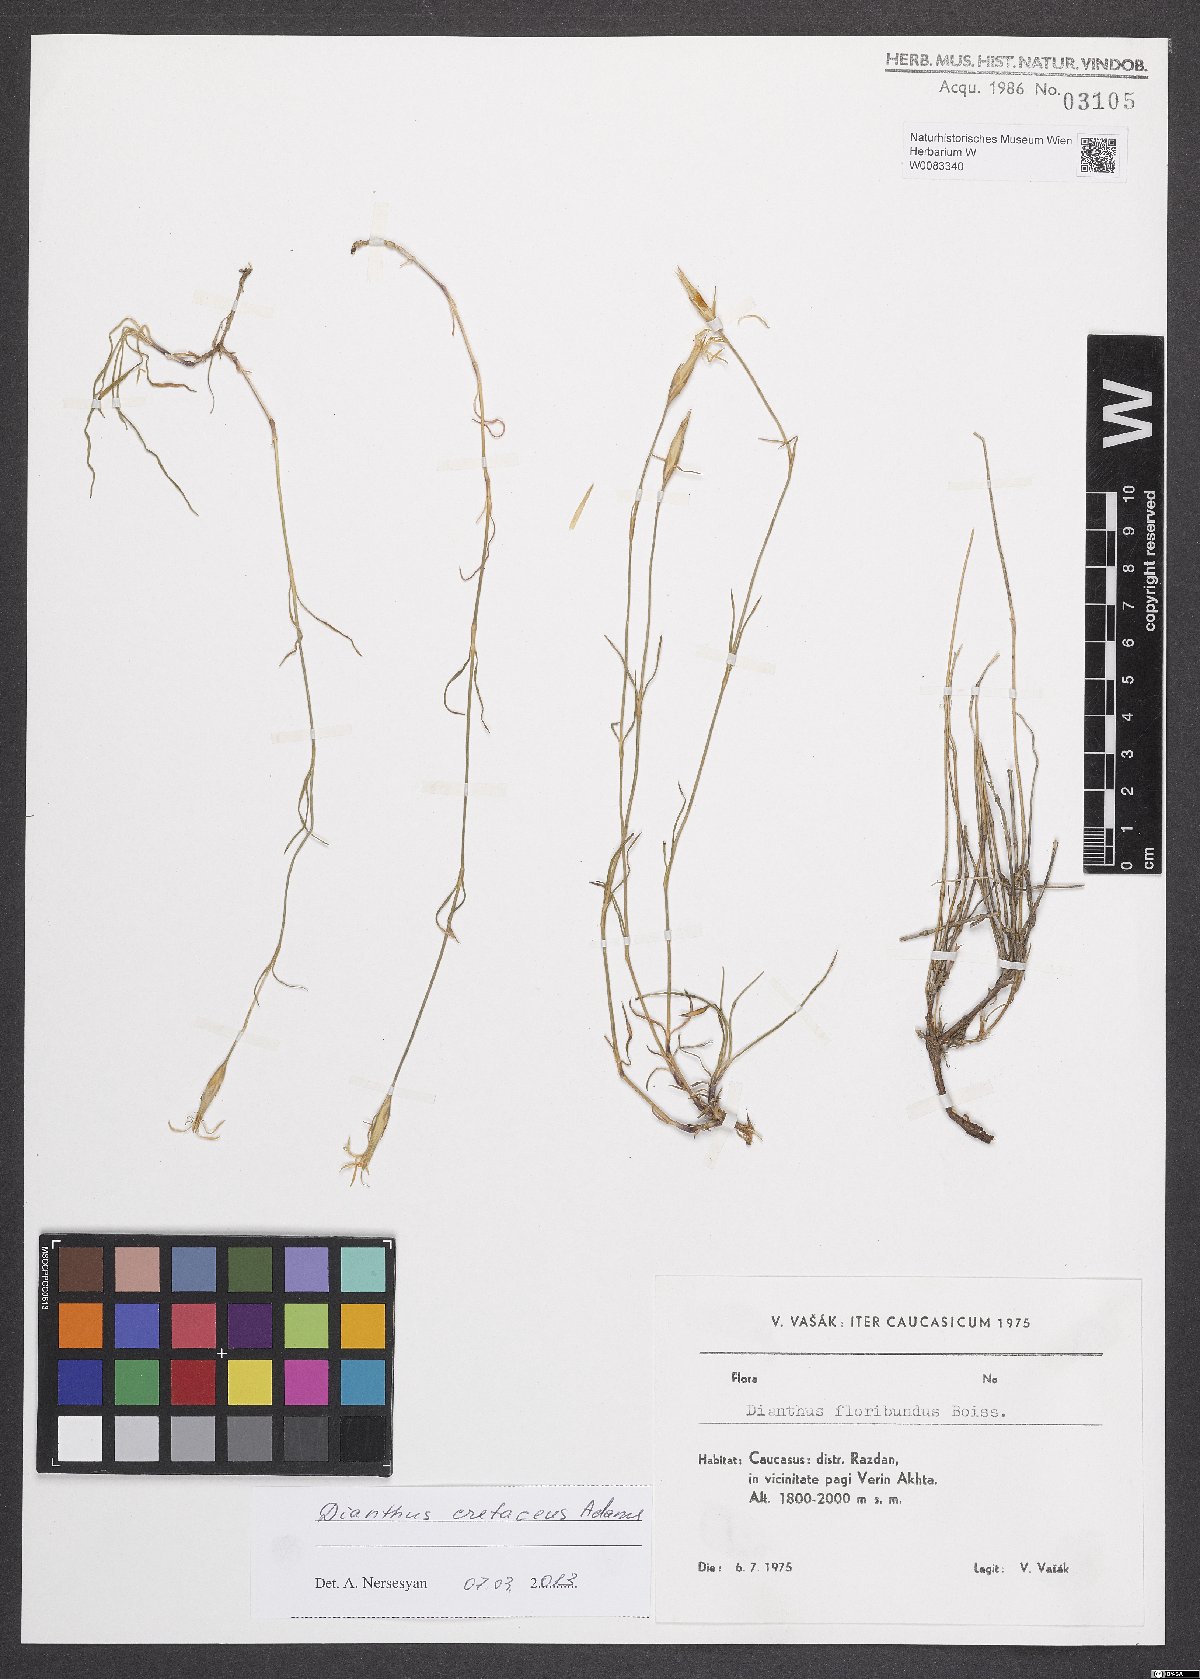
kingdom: Plantae
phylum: Tracheophyta
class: Magnoliopsida
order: Caryophyllales
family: Caryophyllaceae
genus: Dianthus
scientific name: Dianthus cretaceus
